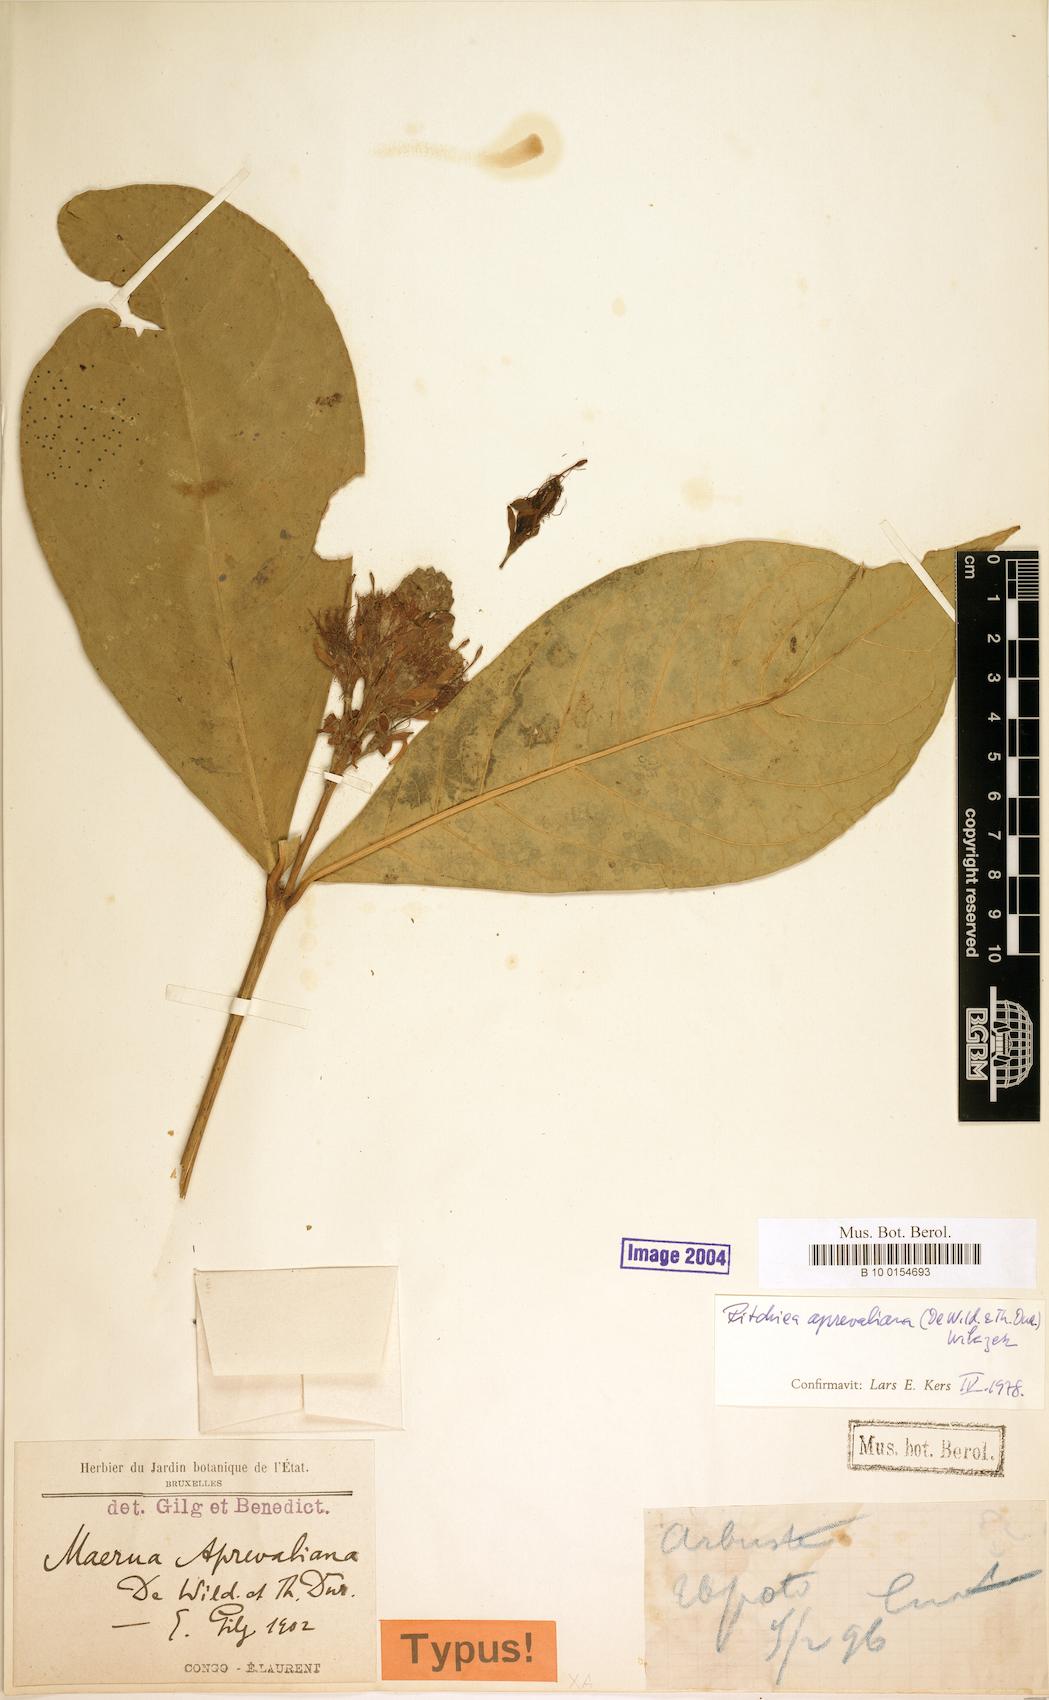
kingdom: Plantae
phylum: Tracheophyta
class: Magnoliopsida
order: Brassicales
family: Capparaceae
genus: Ritchiea
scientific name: Ritchiea aprevaliana
